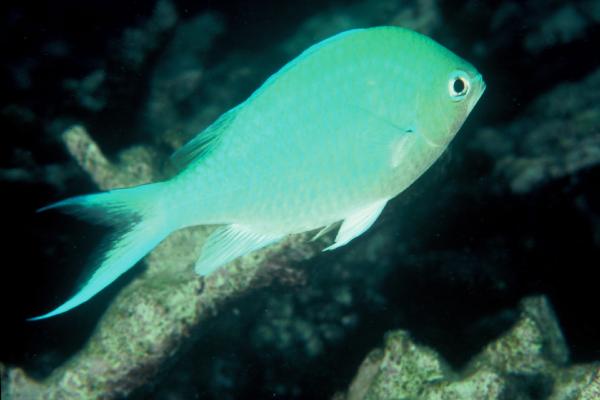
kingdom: Animalia
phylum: Chordata
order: Perciformes
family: Pomacentridae
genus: Chromis
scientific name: Chromis viridis
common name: Blue-green chromis
